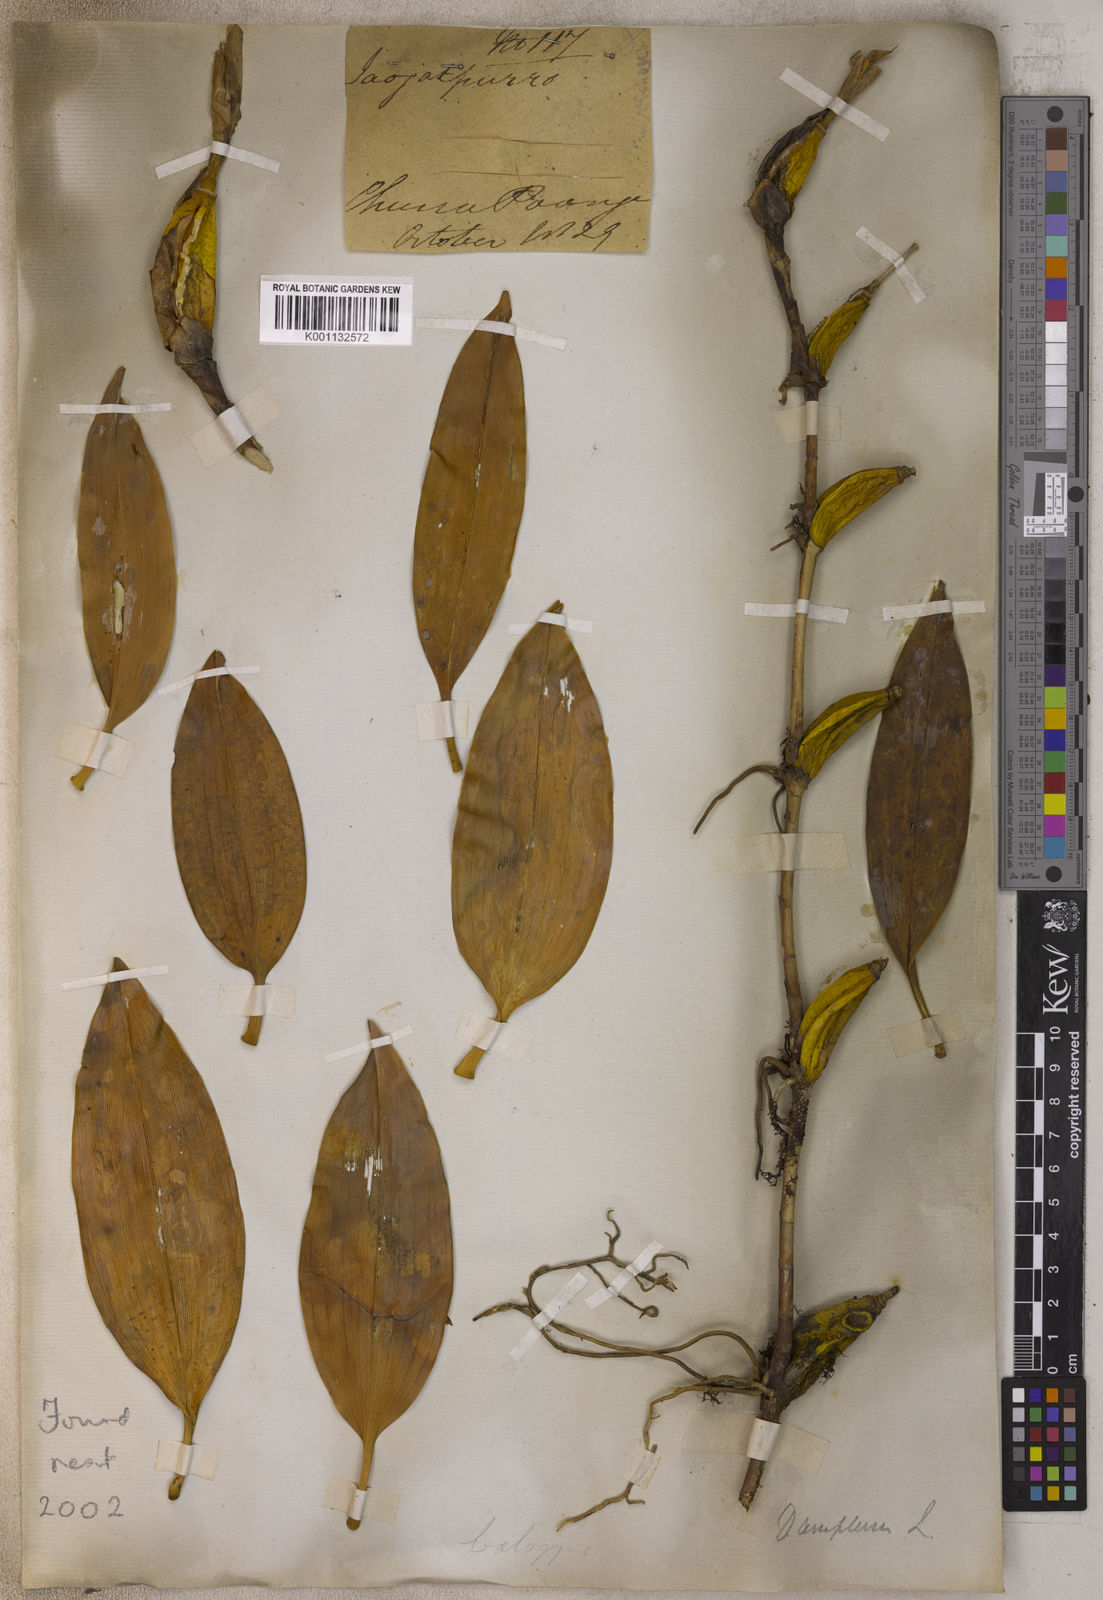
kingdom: Plantae
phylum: Tracheophyta
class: Liliopsida
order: Asparagales
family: Orchidaceae
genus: Dendrobium
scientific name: Dendrobium amplum
